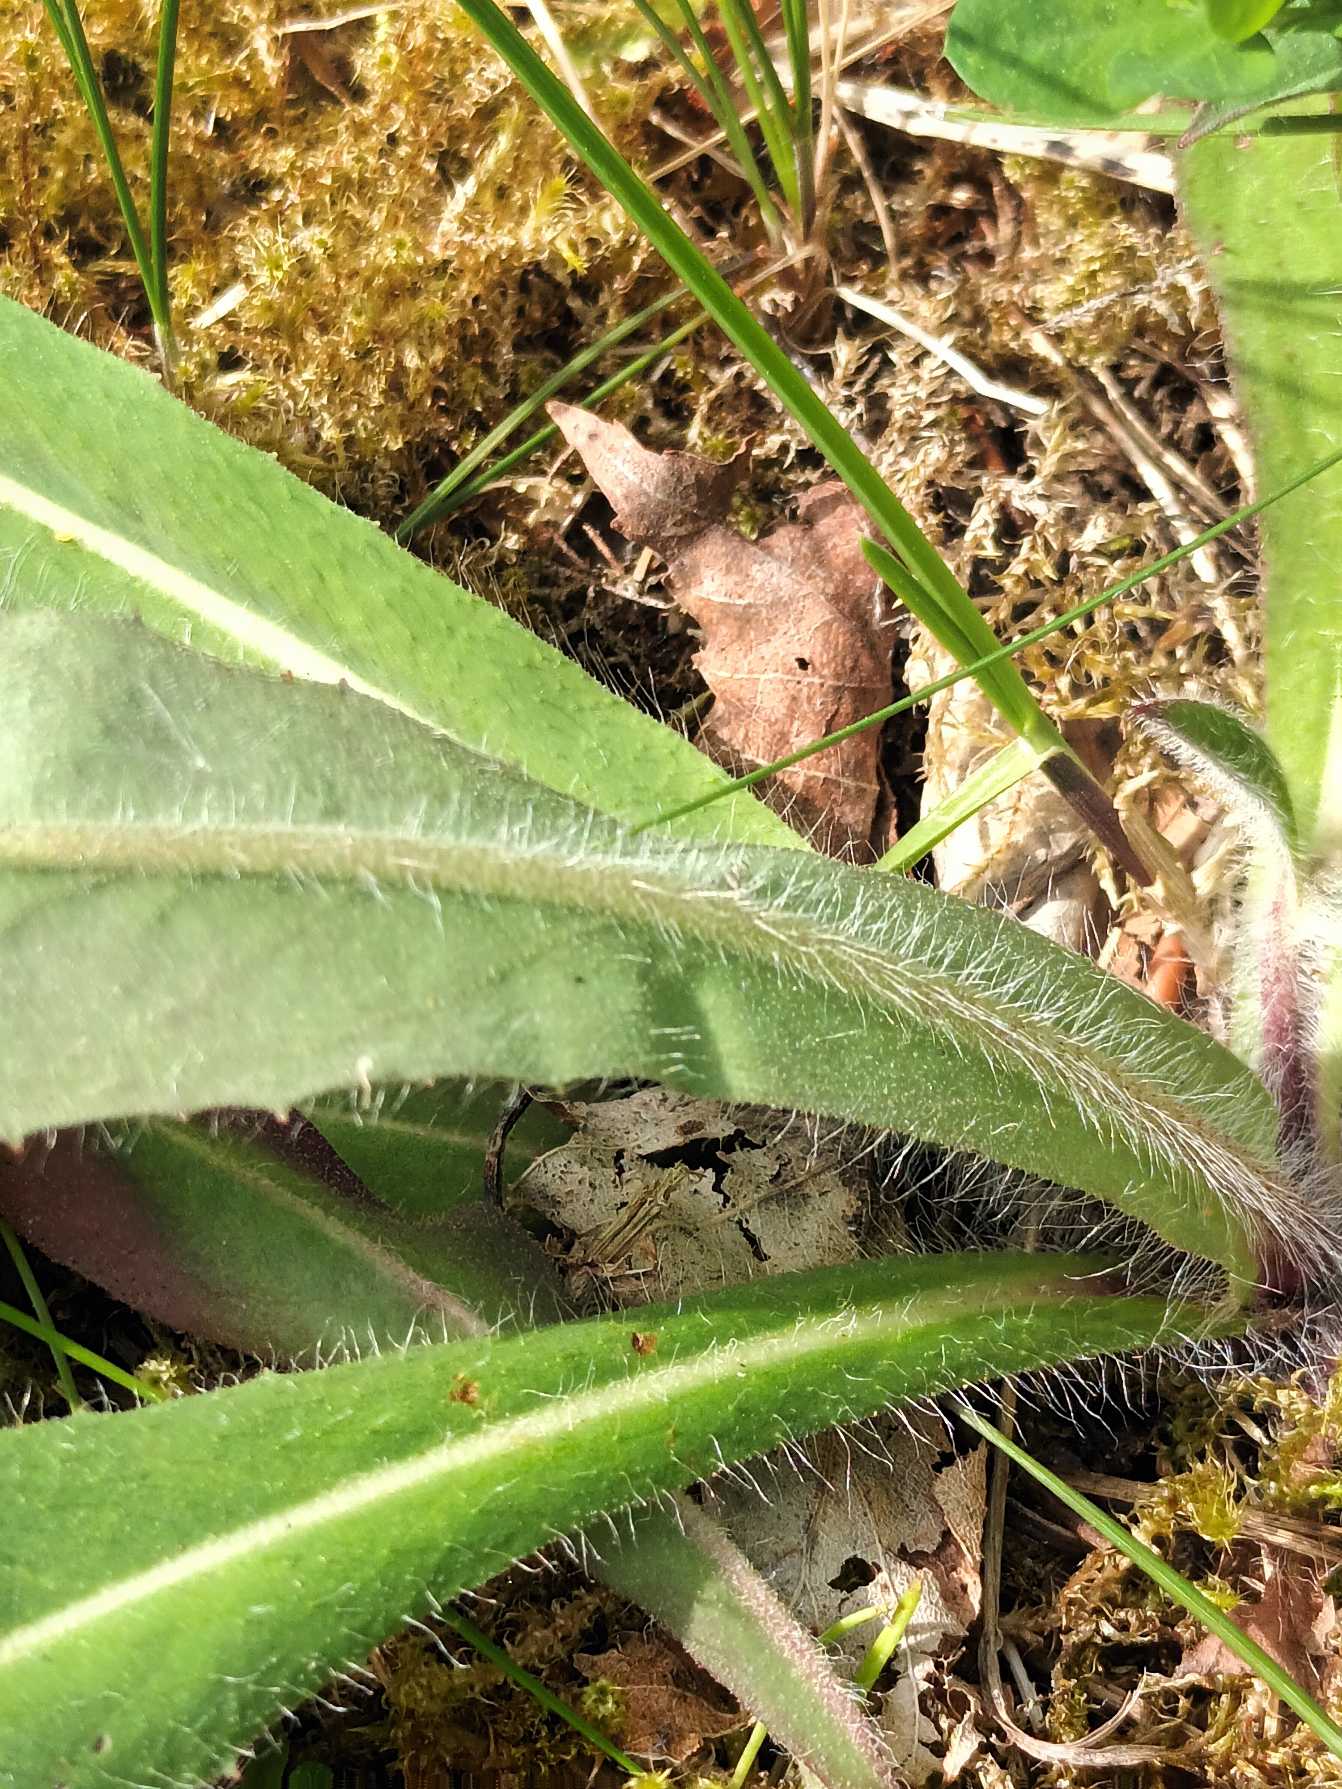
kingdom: Plantae
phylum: Tracheophyta
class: Magnoliopsida
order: Asterales
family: Asteraceae
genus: Pilosella
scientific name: Pilosella caespitosa
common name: Eng-høgeurt
